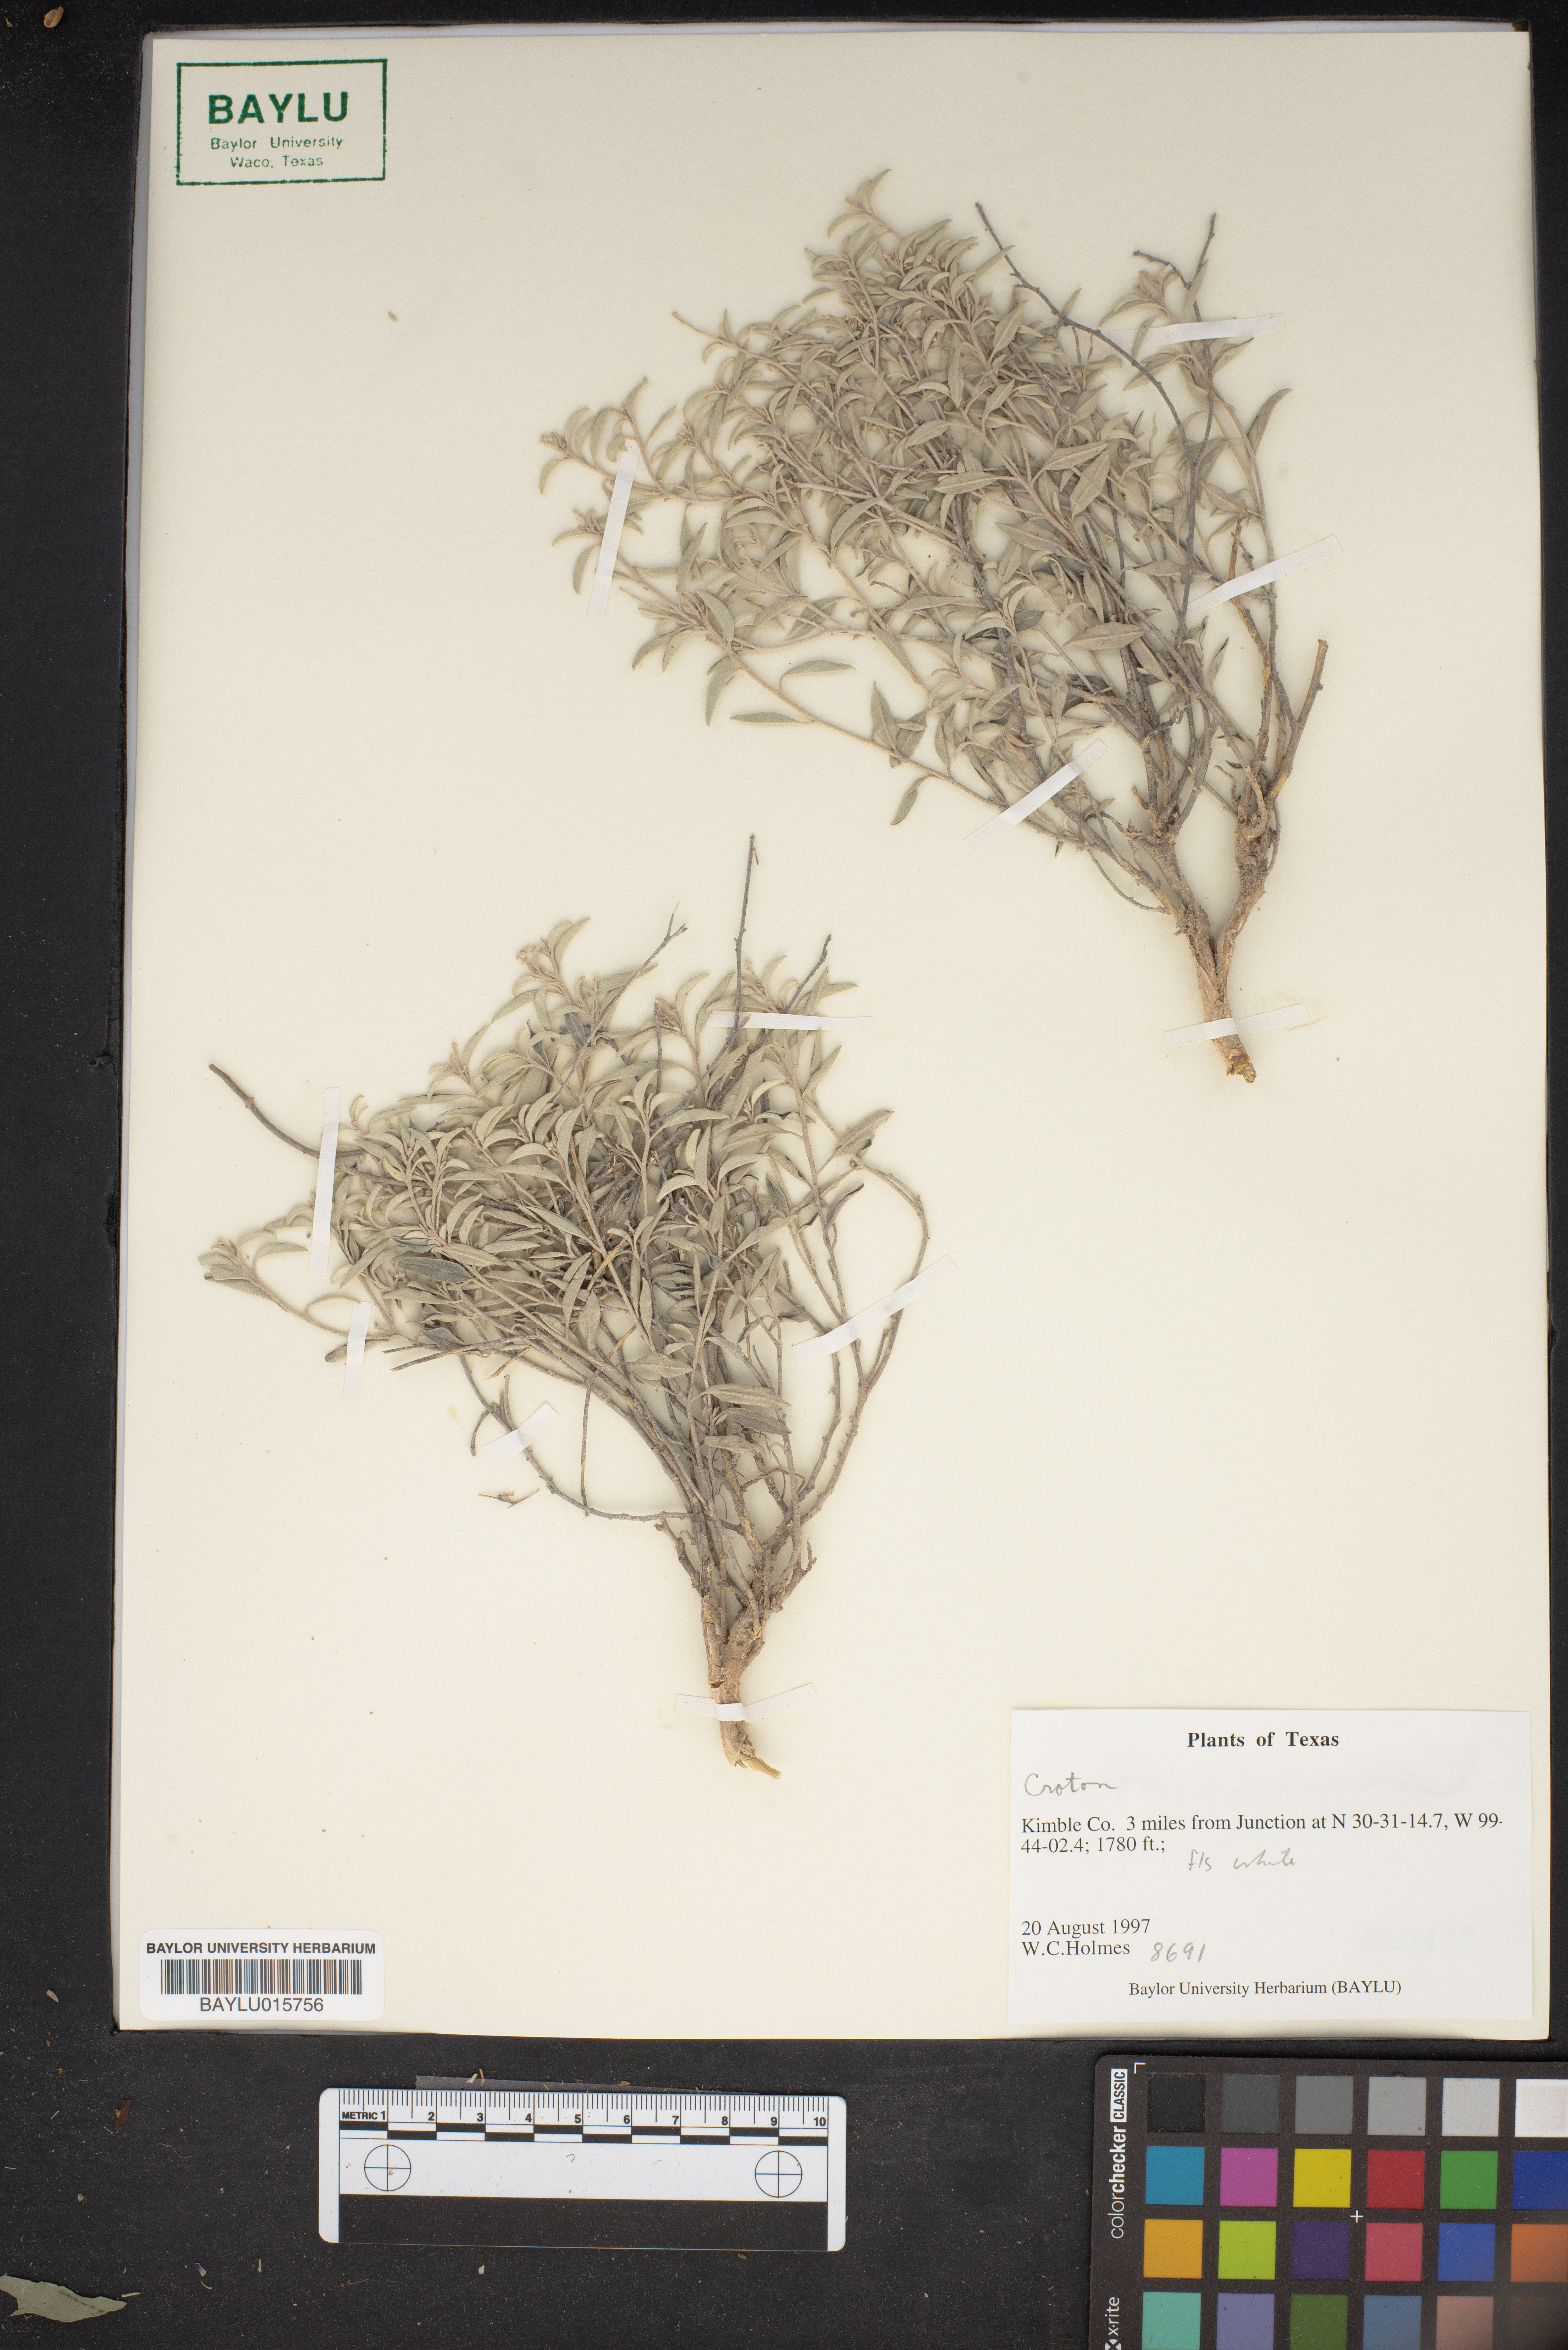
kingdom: Plantae
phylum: Tracheophyta
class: Magnoliopsida
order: Malpighiales
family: Euphorbiaceae
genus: Croton
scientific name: Croton
